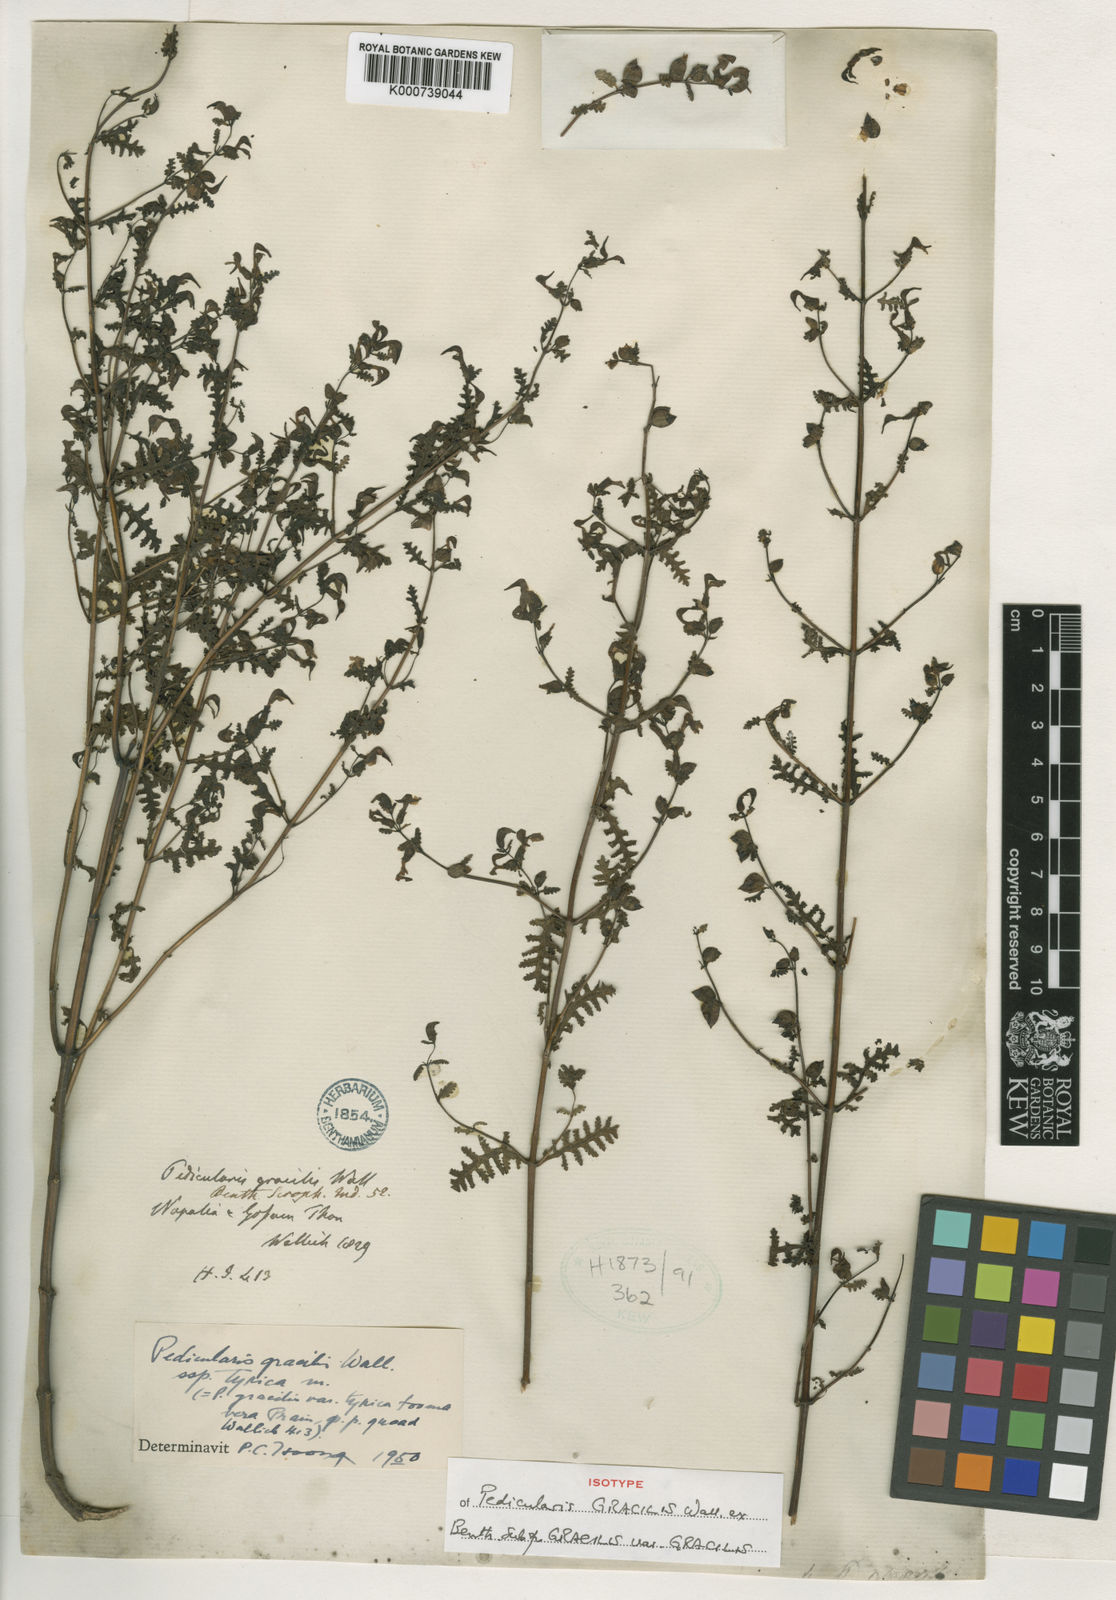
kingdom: Plantae
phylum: Tracheophyta
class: Magnoliopsida
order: Lamiales
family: Orobanchaceae
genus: Pedicularis
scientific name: Pedicularis gracilis
